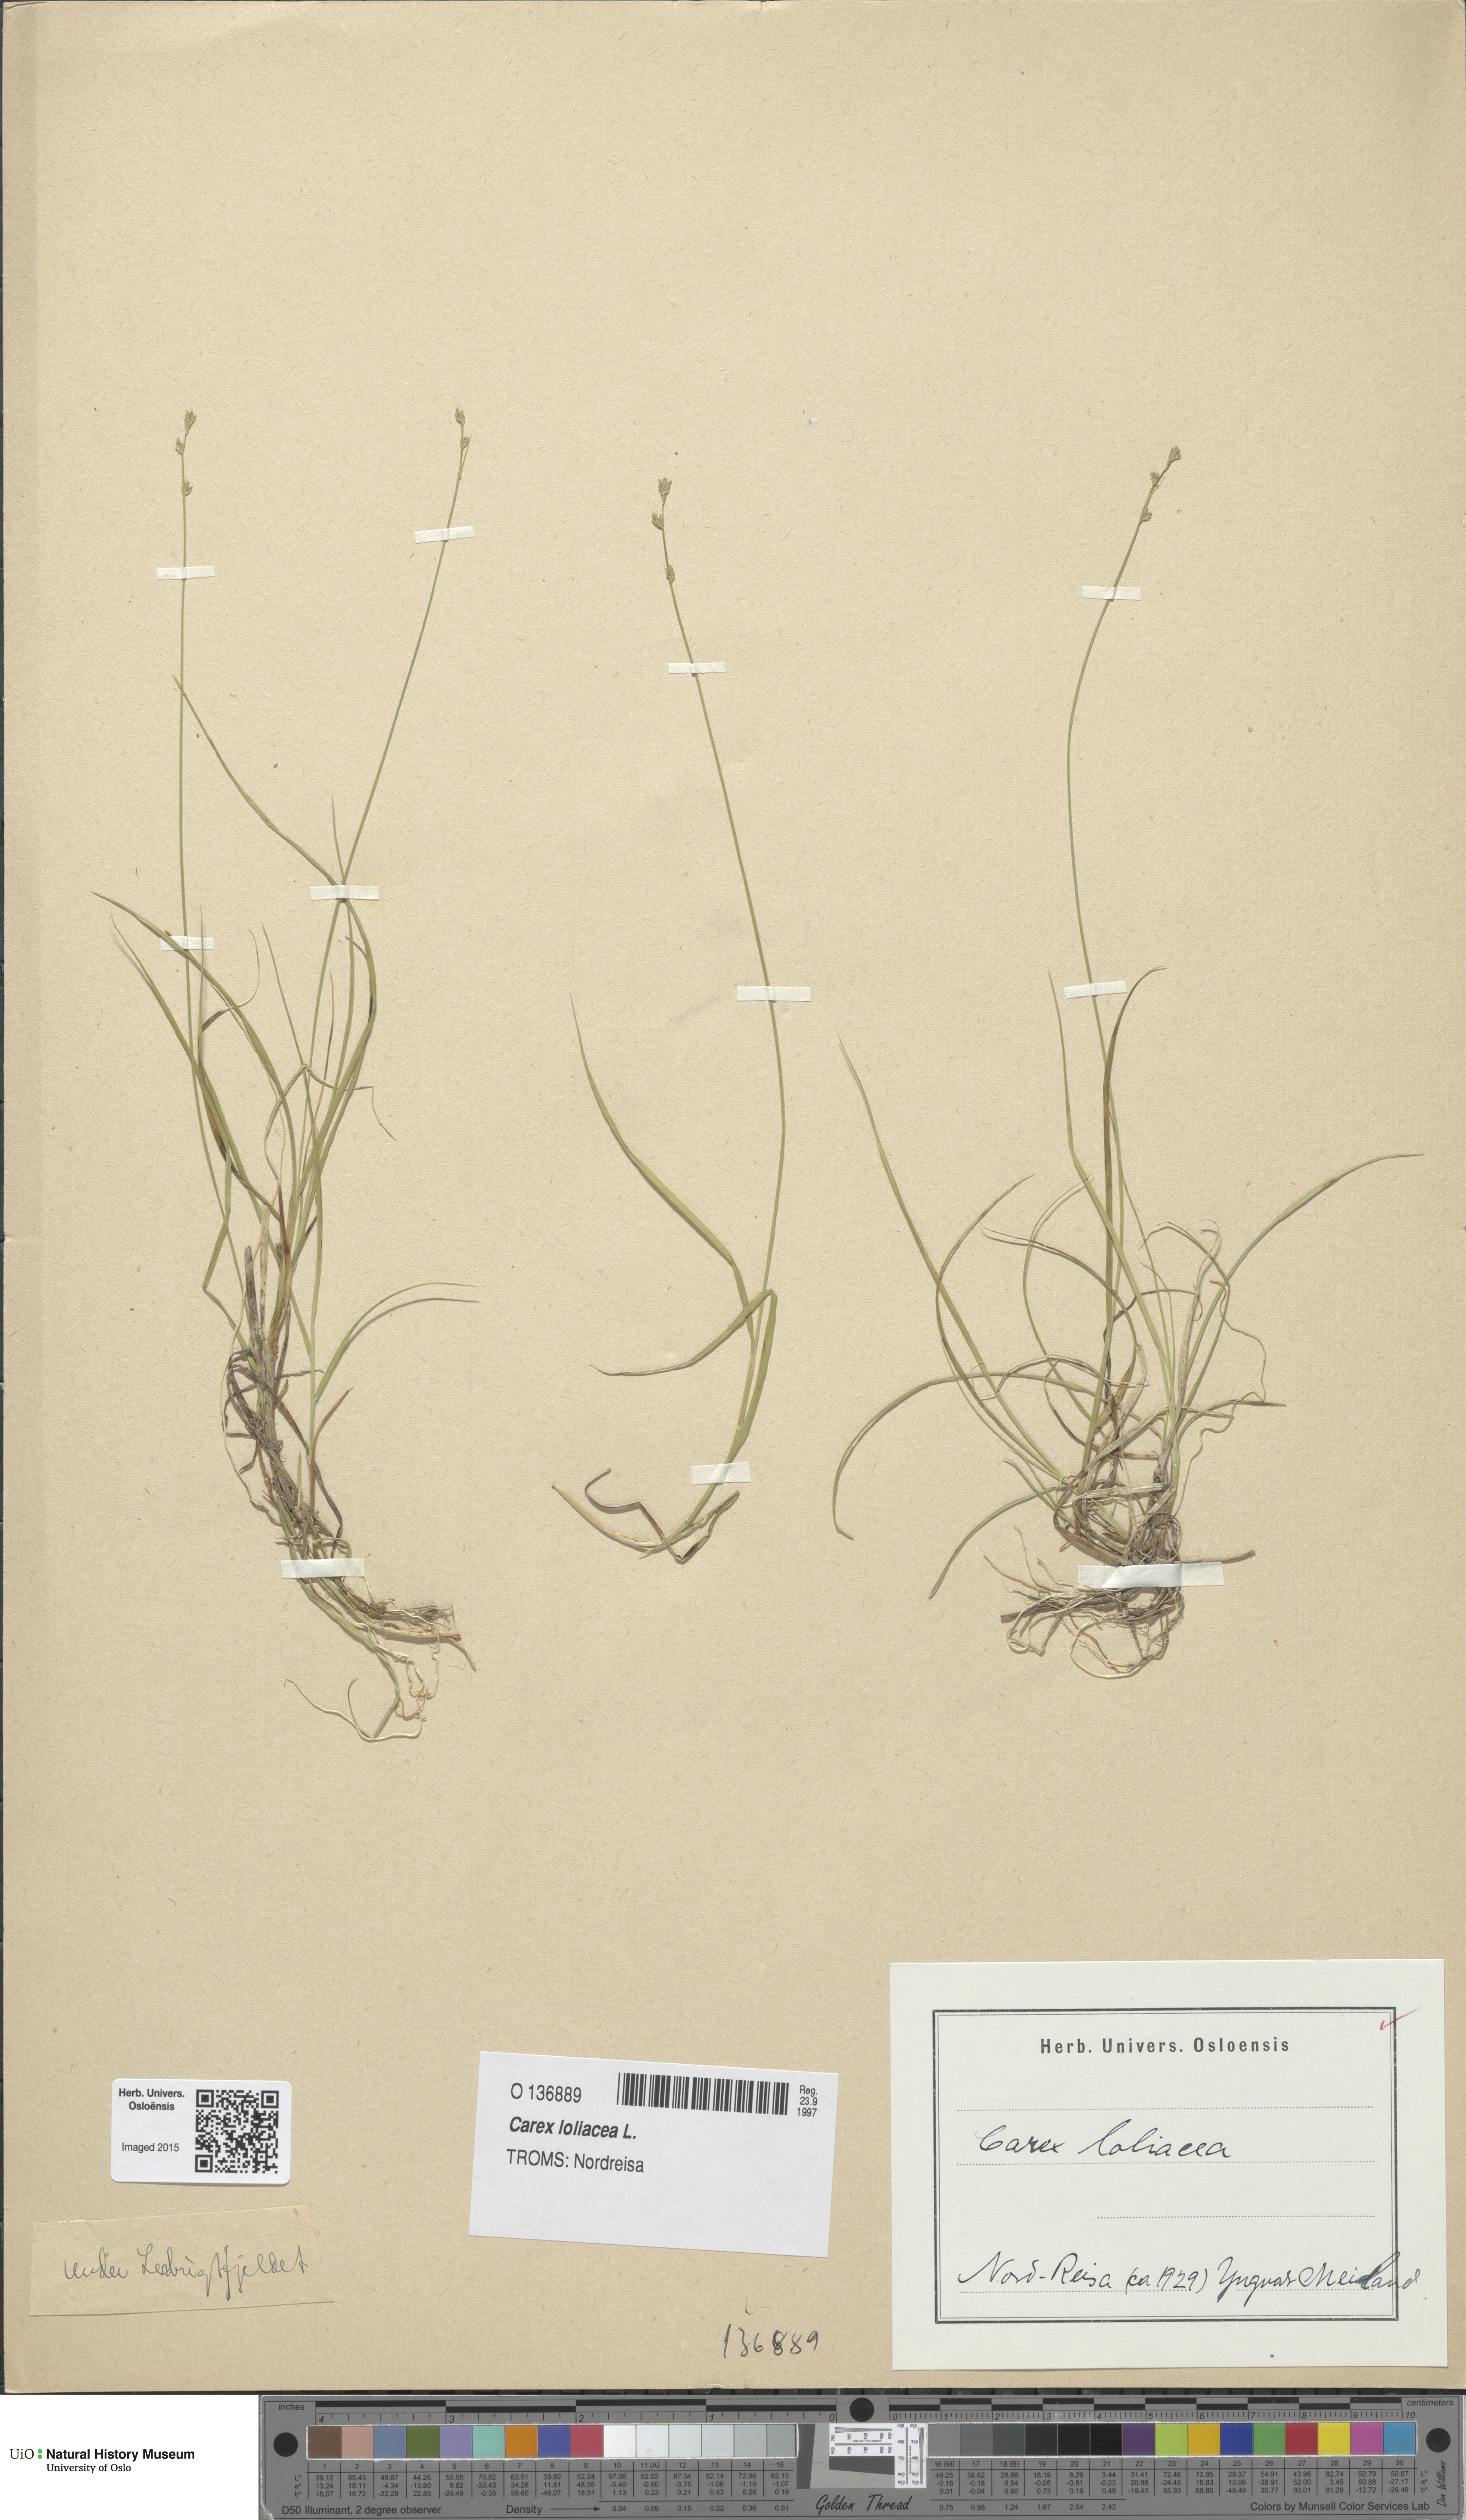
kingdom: Plantae
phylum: Tracheophyta
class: Liliopsida
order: Poales
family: Cyperaceae
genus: Carex
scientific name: Carex loliacea
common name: Ryegrass sedge
